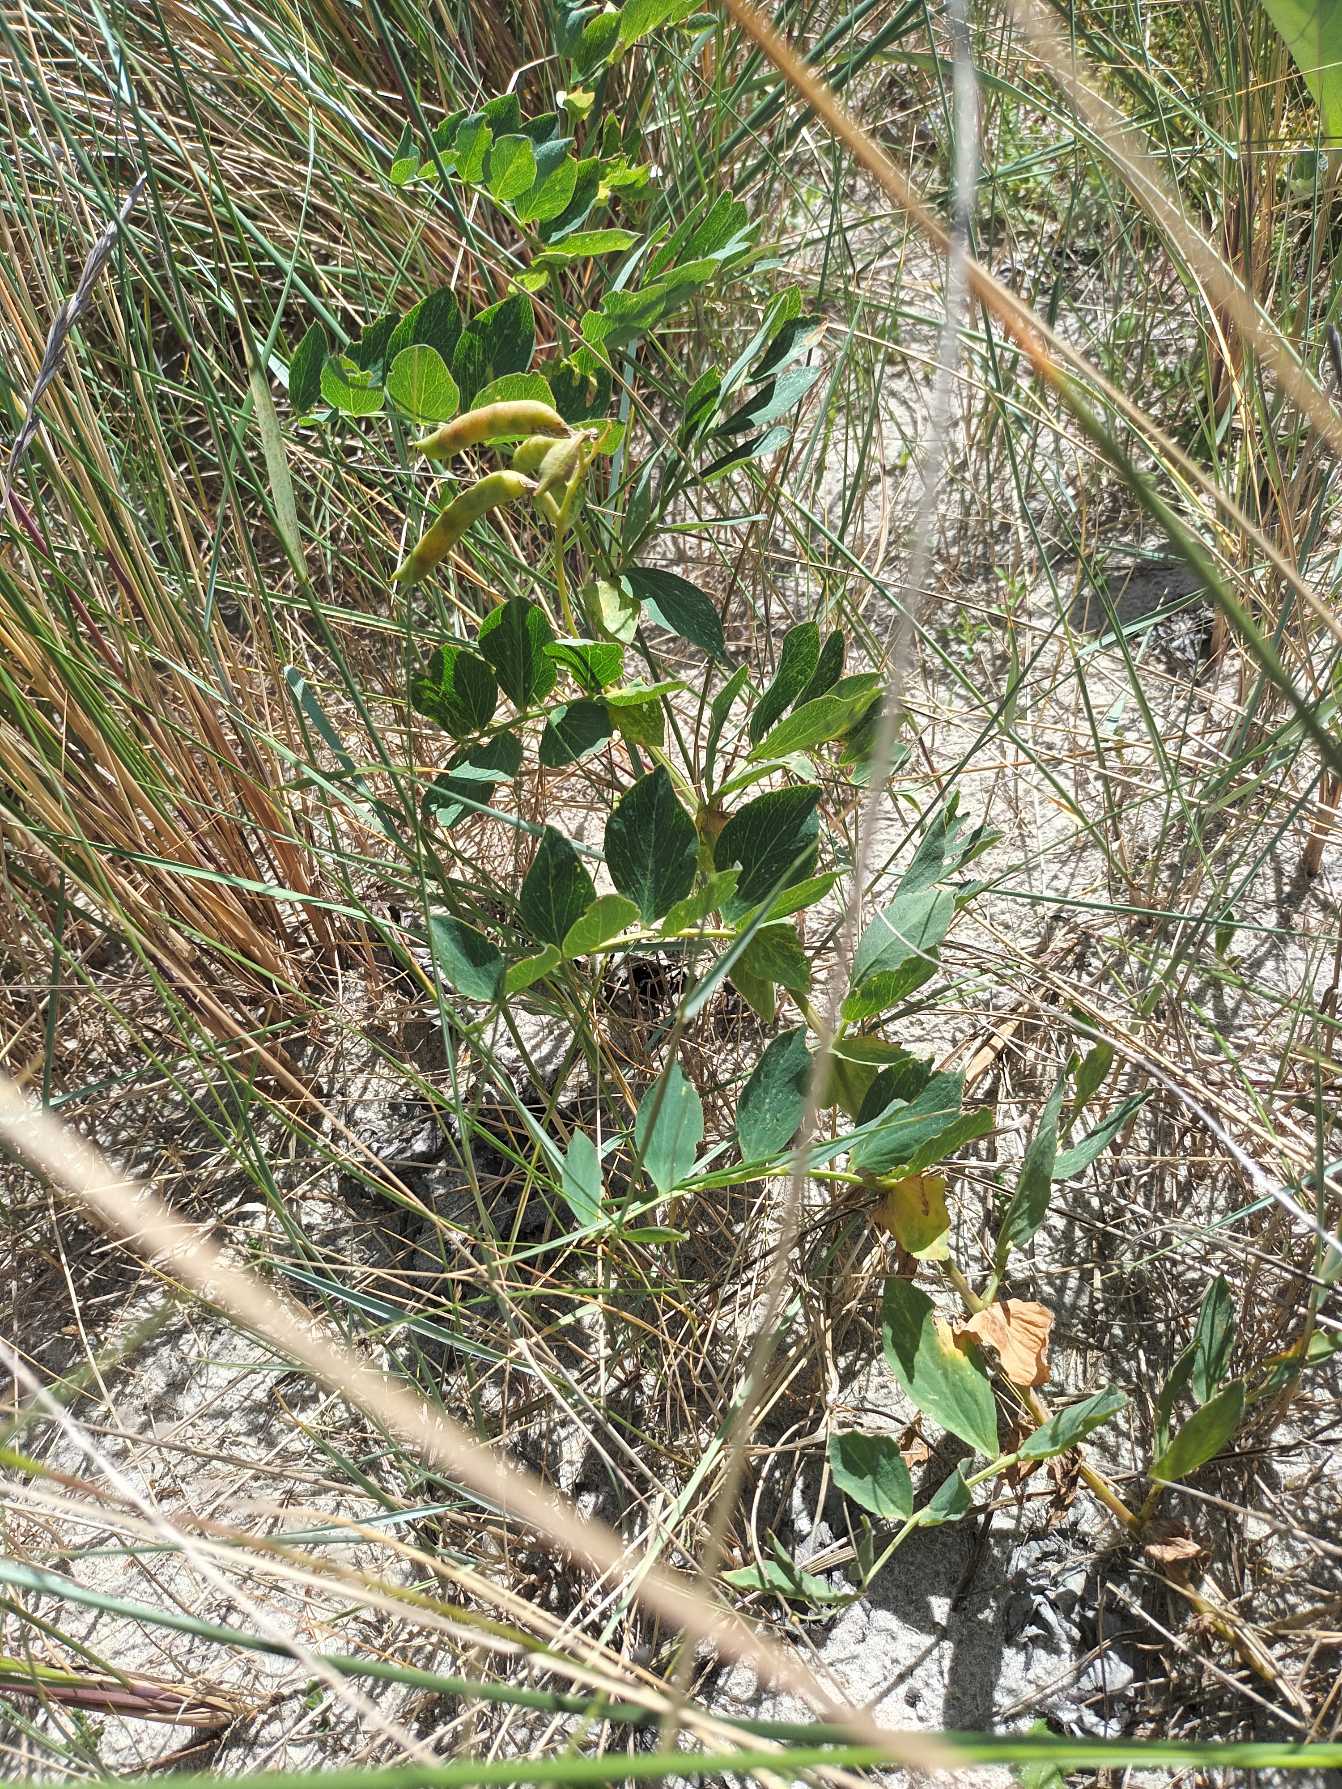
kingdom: Plantae
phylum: Tracheophyta
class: Magnoliopsida
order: Fabales
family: Fabaceae
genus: Lathyrus
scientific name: Lathyrus japonicus
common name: Strand-fladbælg
